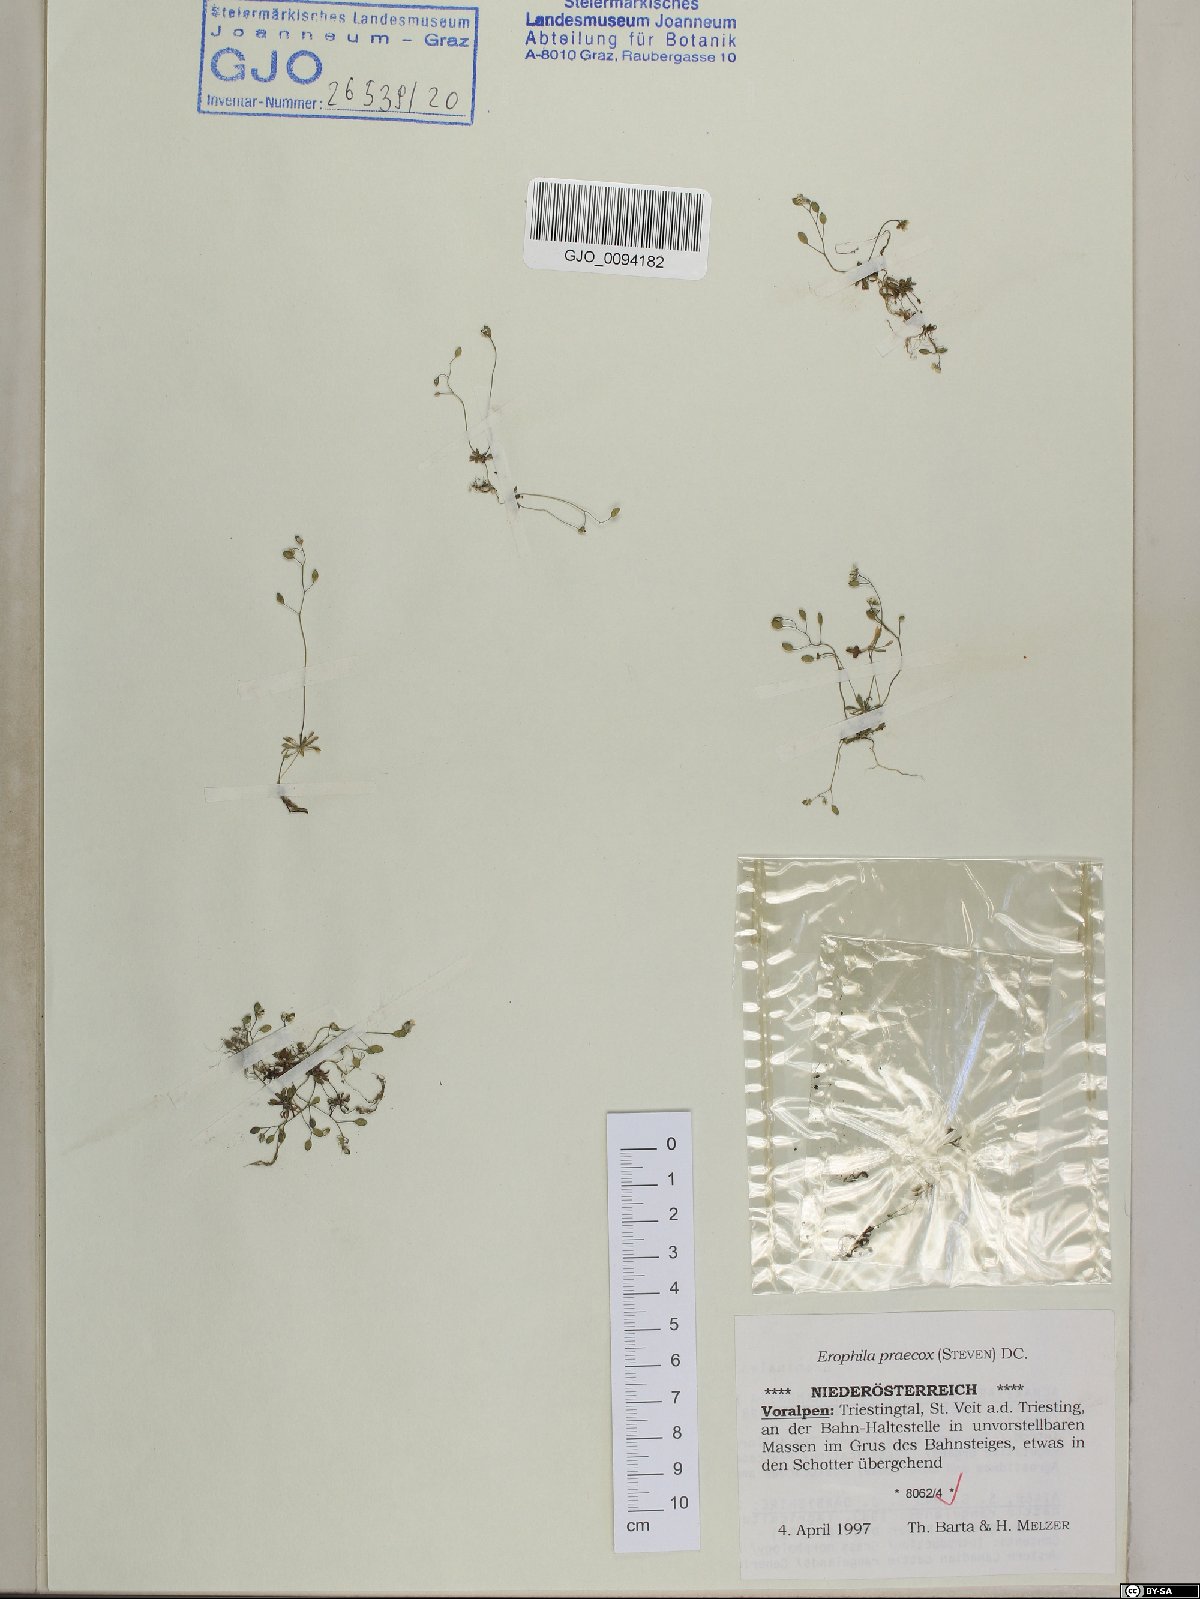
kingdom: Plantae
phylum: Tracheophyta
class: Magnoliopsida
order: Brassicales
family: Brassicaceae
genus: Draba
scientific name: Draba verna
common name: Spring draba
